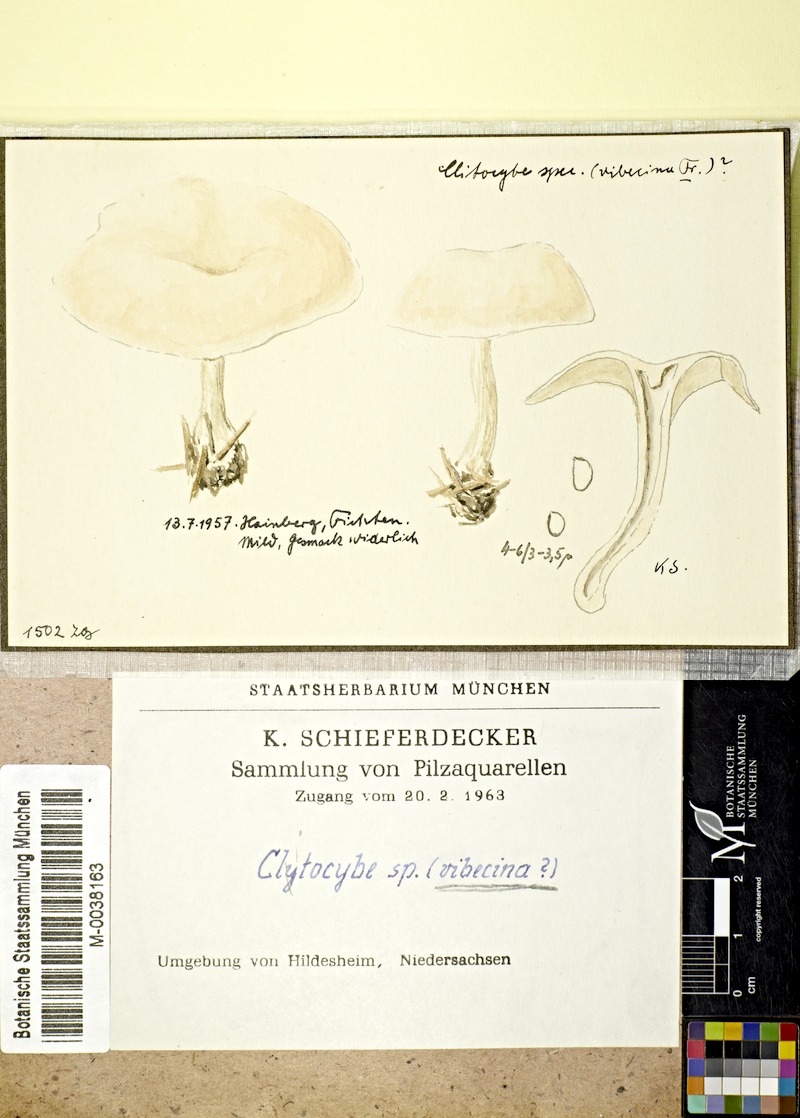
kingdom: Fungi
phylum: Basidiomycota
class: Agaricomycetes
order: Agaricales
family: Tricholomataceae
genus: Clitocybe
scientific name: Clitocybe vibecina
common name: Mealy funnel
